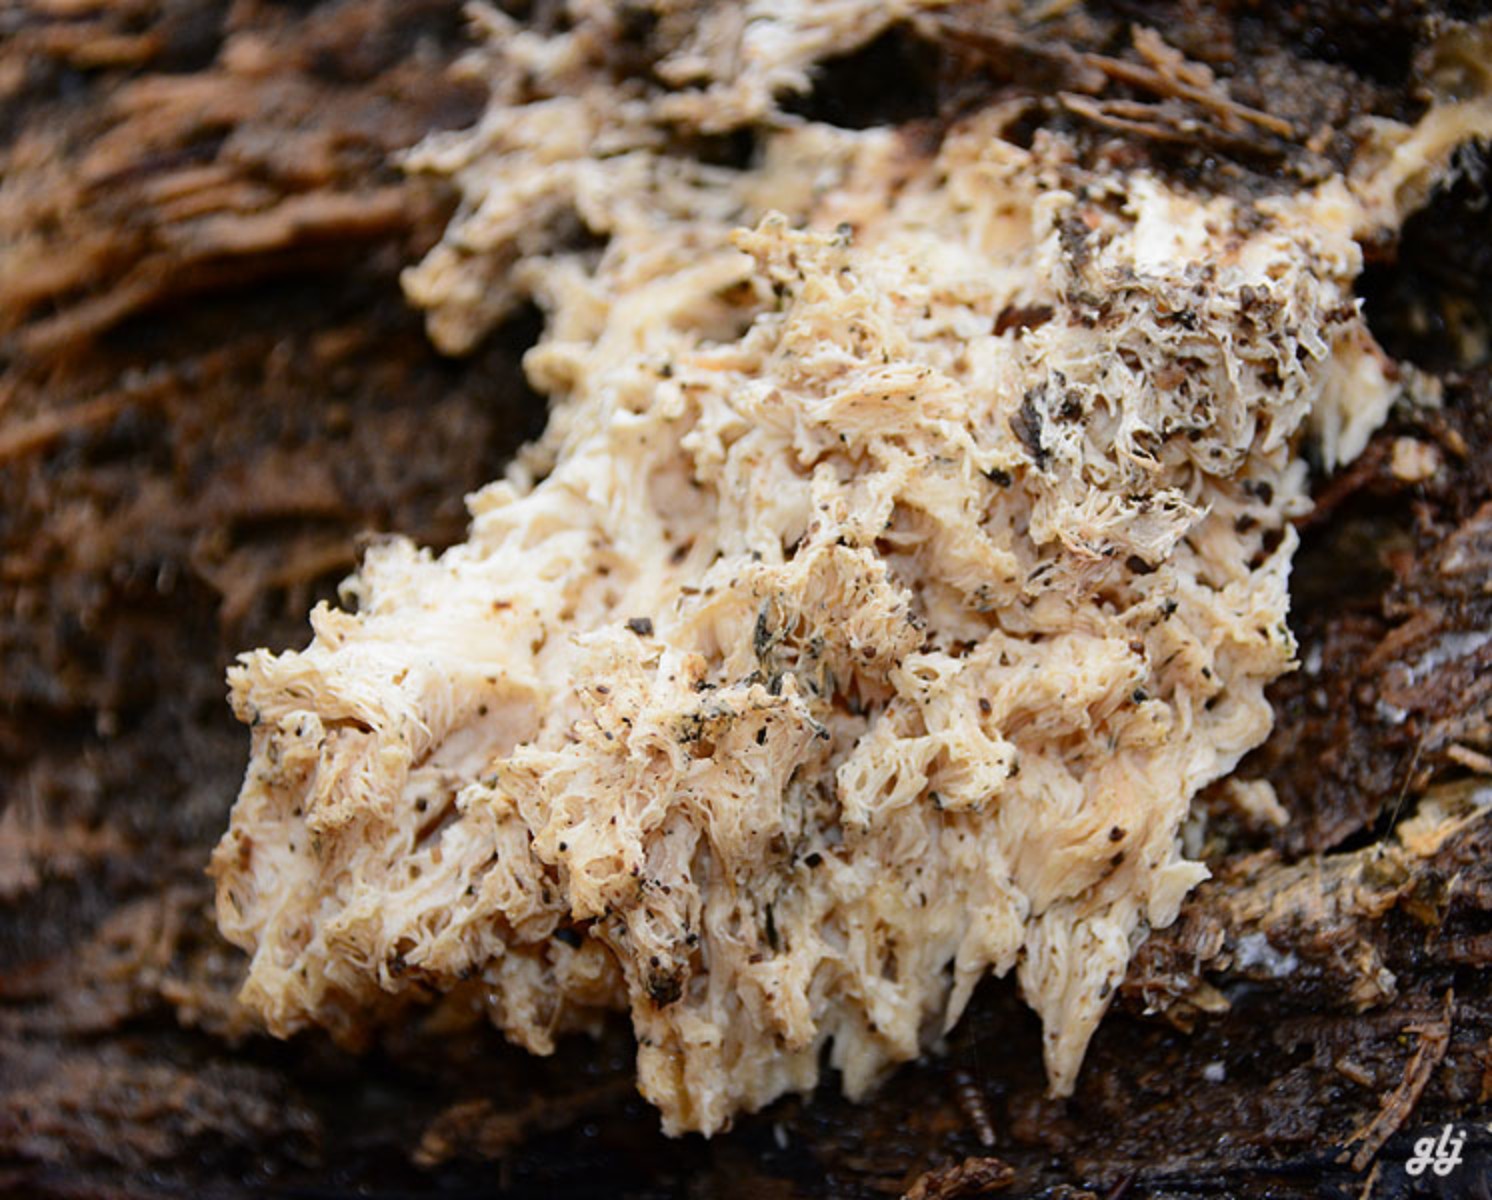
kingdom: Fungi
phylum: Basidiomycota
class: Agaricomycetes
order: Russulales
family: Hericiaceae
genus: Hericium
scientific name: Hericium coralloides
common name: koralpigsvamp
